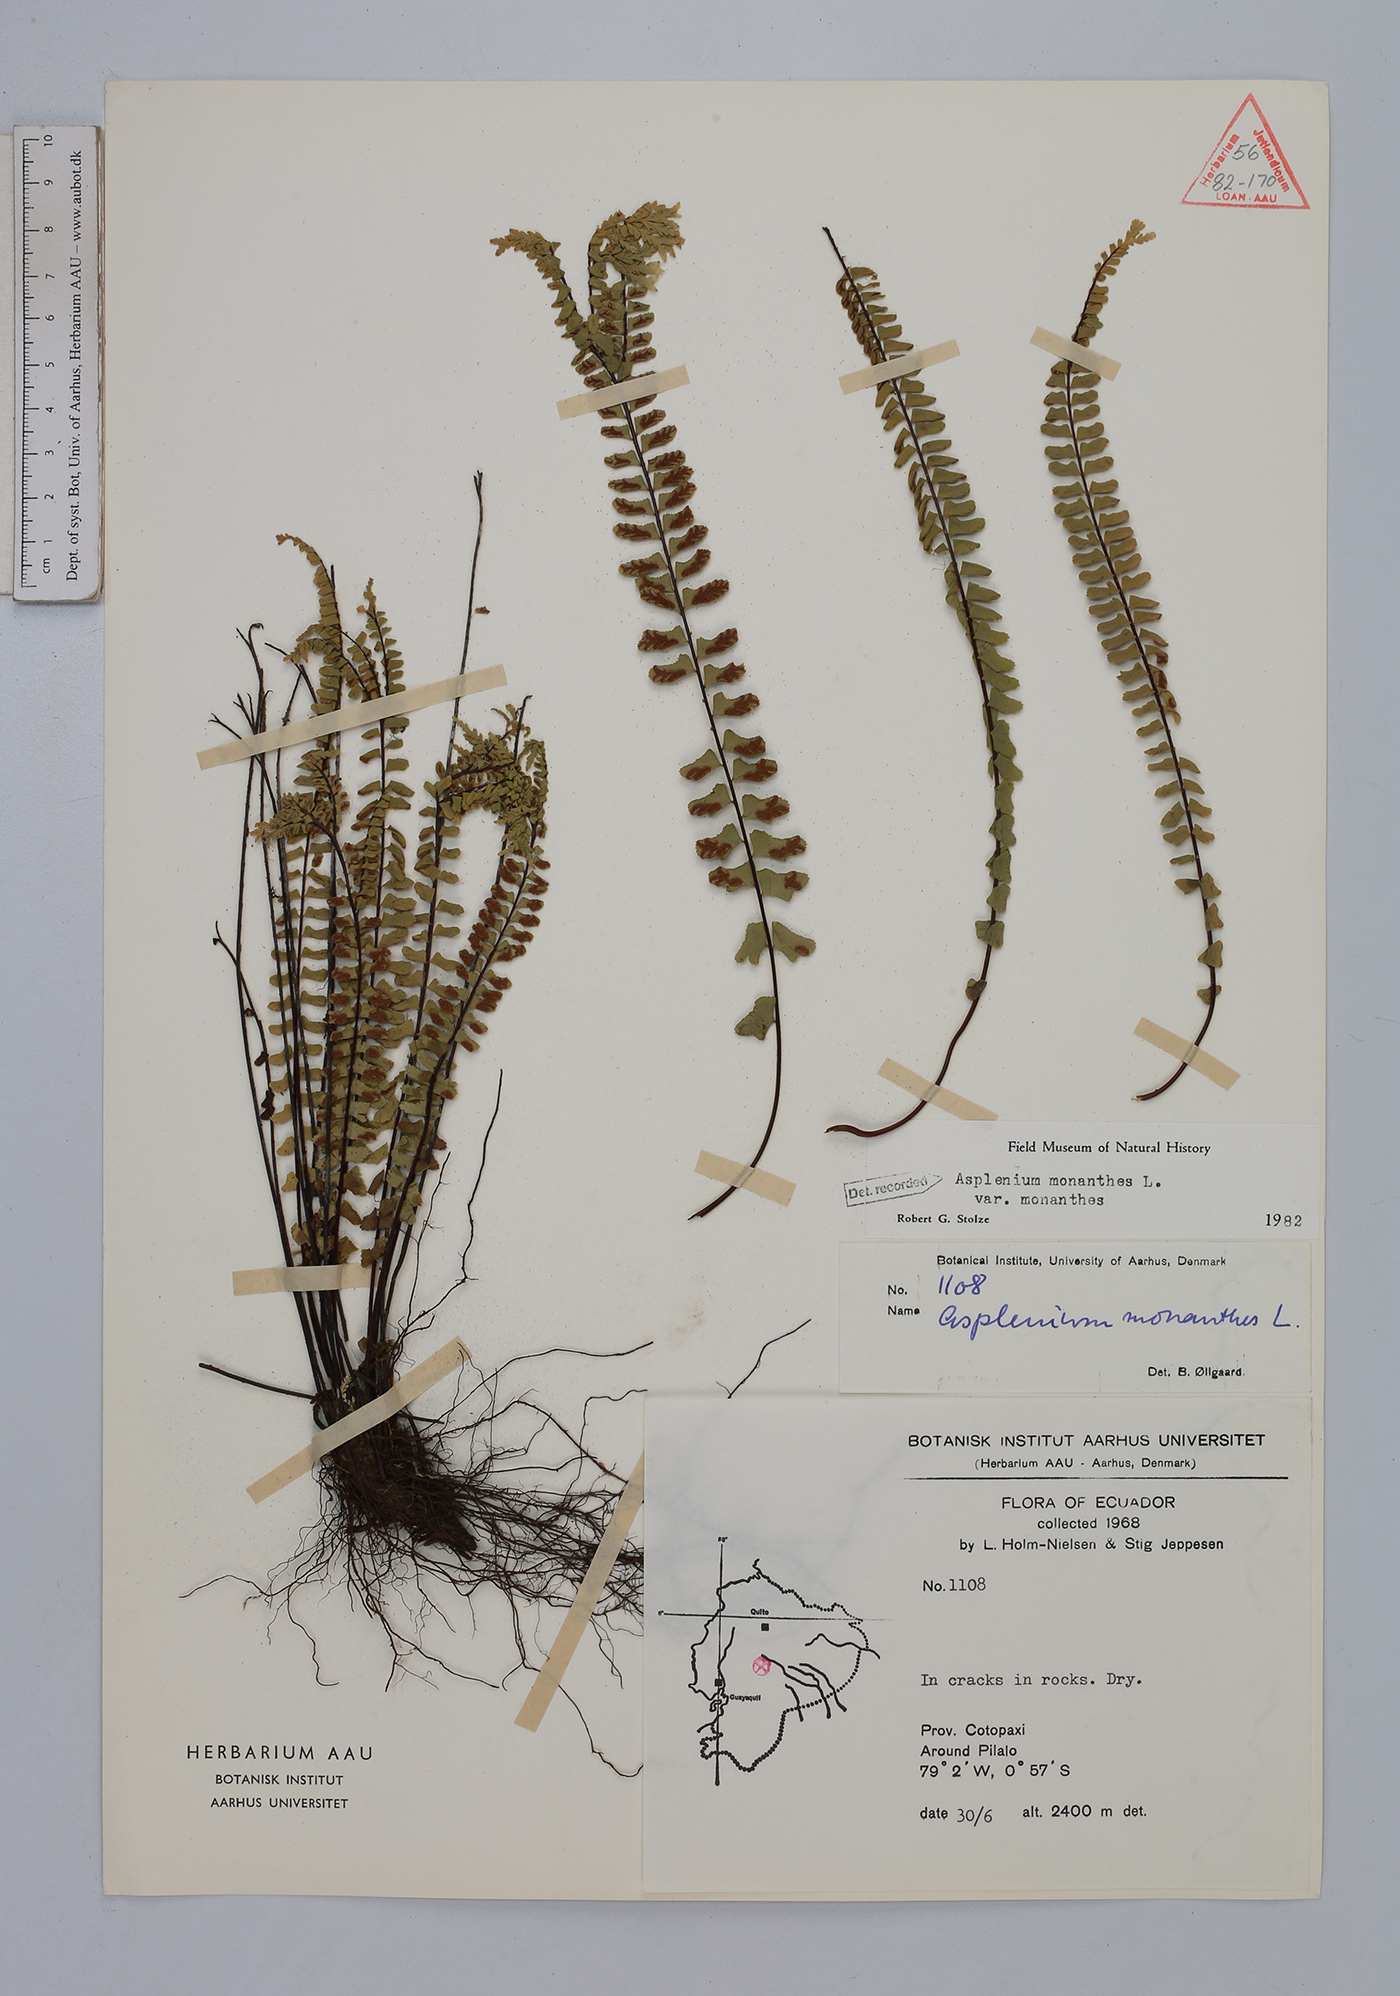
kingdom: Plantae
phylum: Tracheophyta
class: Polypodiopsida
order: Polypodiales
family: Aspleniaceae
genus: Asplenium
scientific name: Asplenium monanthes
